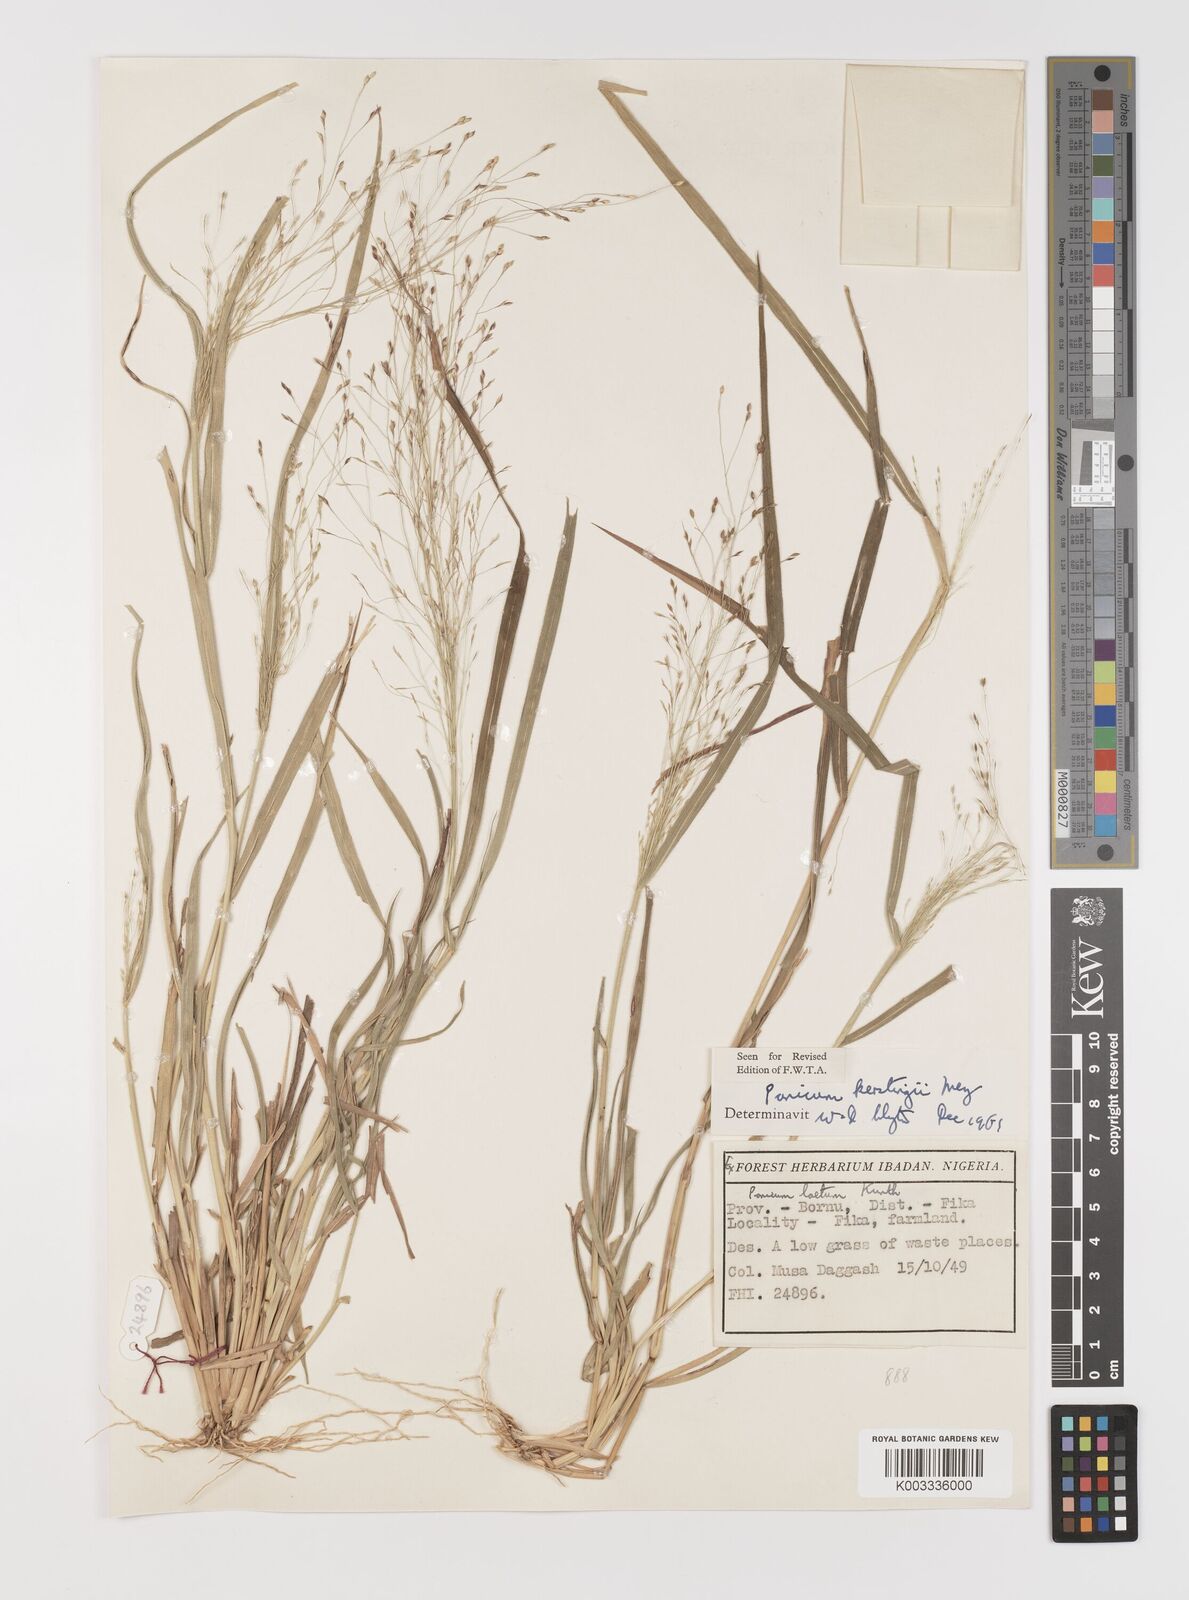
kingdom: Plantae
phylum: Tracheophyta
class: Liliopsida
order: Poales
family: Poaceae
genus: Panicum
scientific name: Panicum pansum
